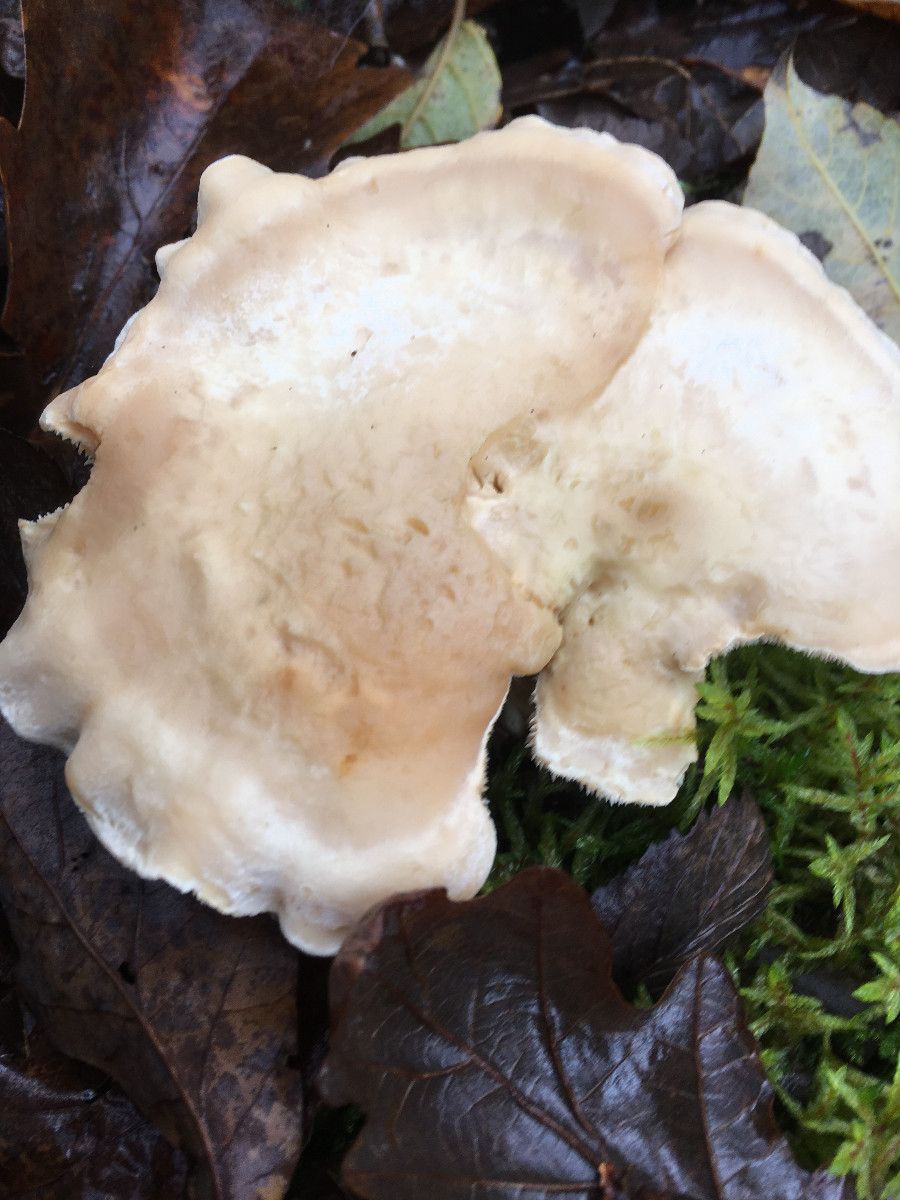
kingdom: Fungi
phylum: Basidiomycota
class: Agaricomycetes
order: Cantharellales
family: Hydnaceae
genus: Hydnum
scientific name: Hydnum repandum
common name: almindelig pigsvamp
